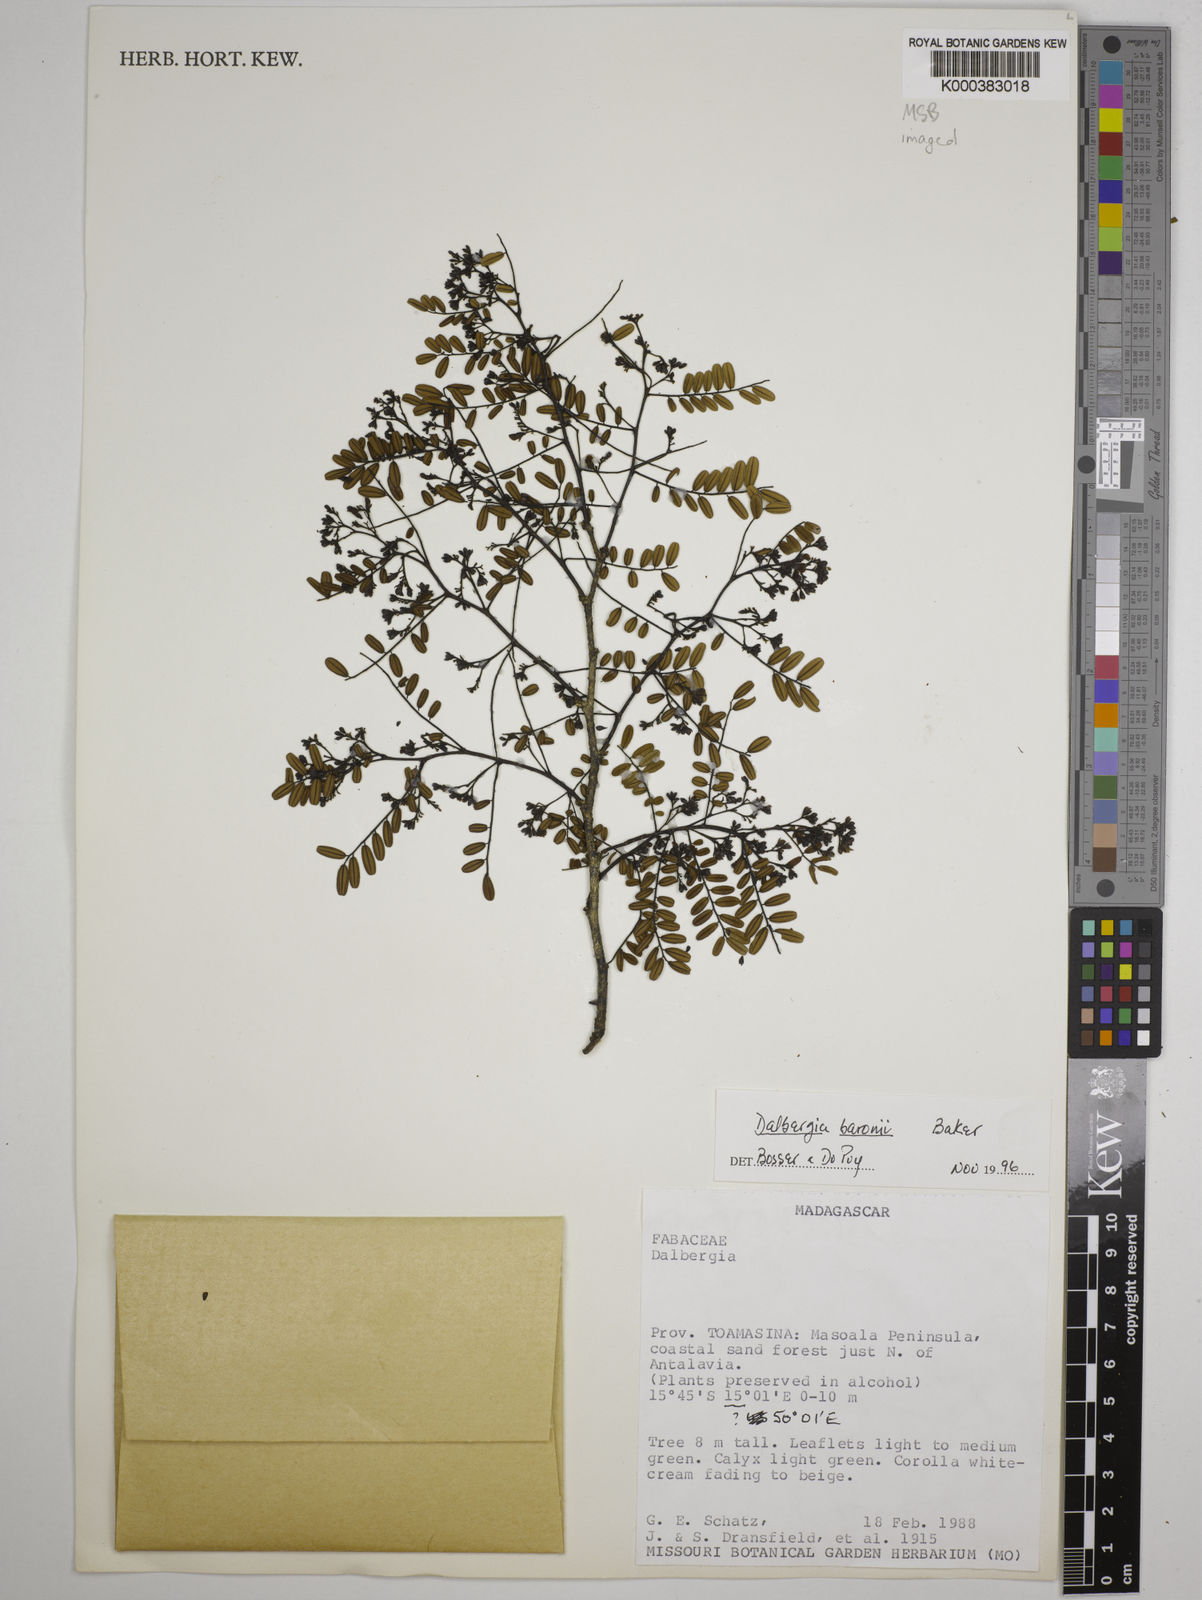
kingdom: Plantae
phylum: Tracheophyta
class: Magnoliopsida
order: Fabales
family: Fabaceae
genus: Dalbergia
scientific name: Dalbergia baronii
